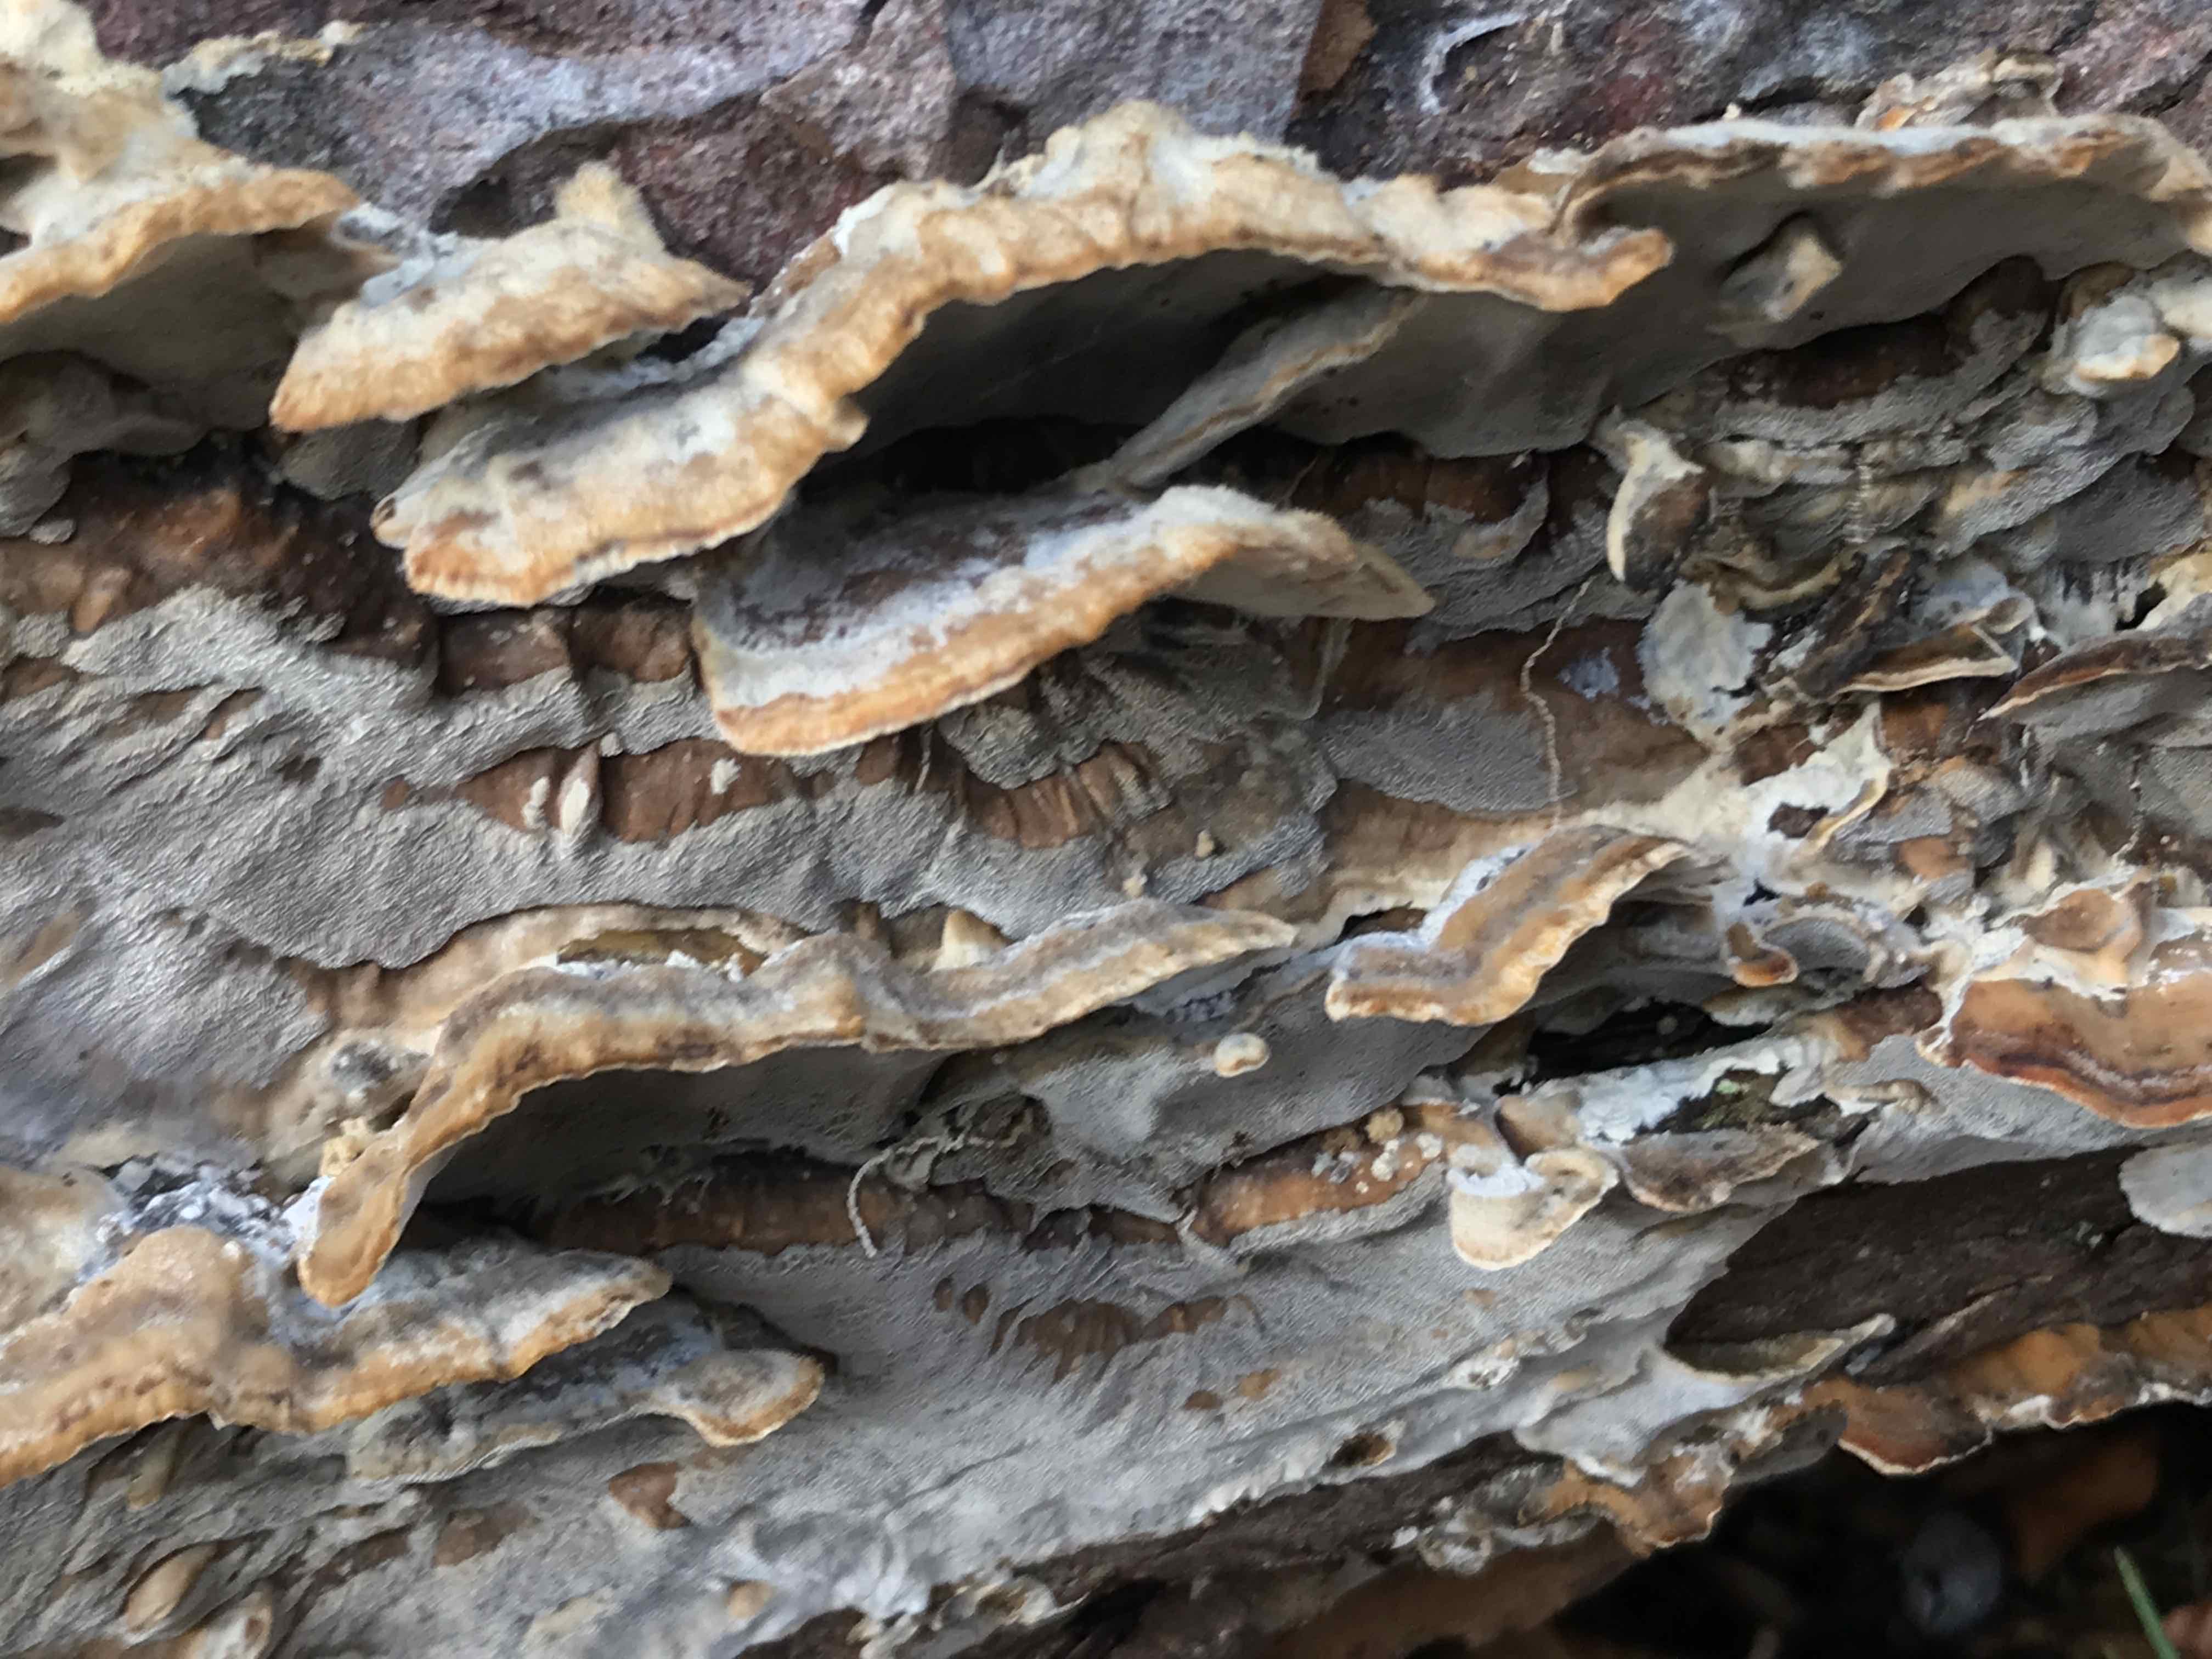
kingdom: Fungi
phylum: Basidiomycota
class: Agaricomycetes
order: Polyporales
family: Phanerochaetaceae
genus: Bjerkandera
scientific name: Bjerkandera adusta
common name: sveden sodporesvamp
